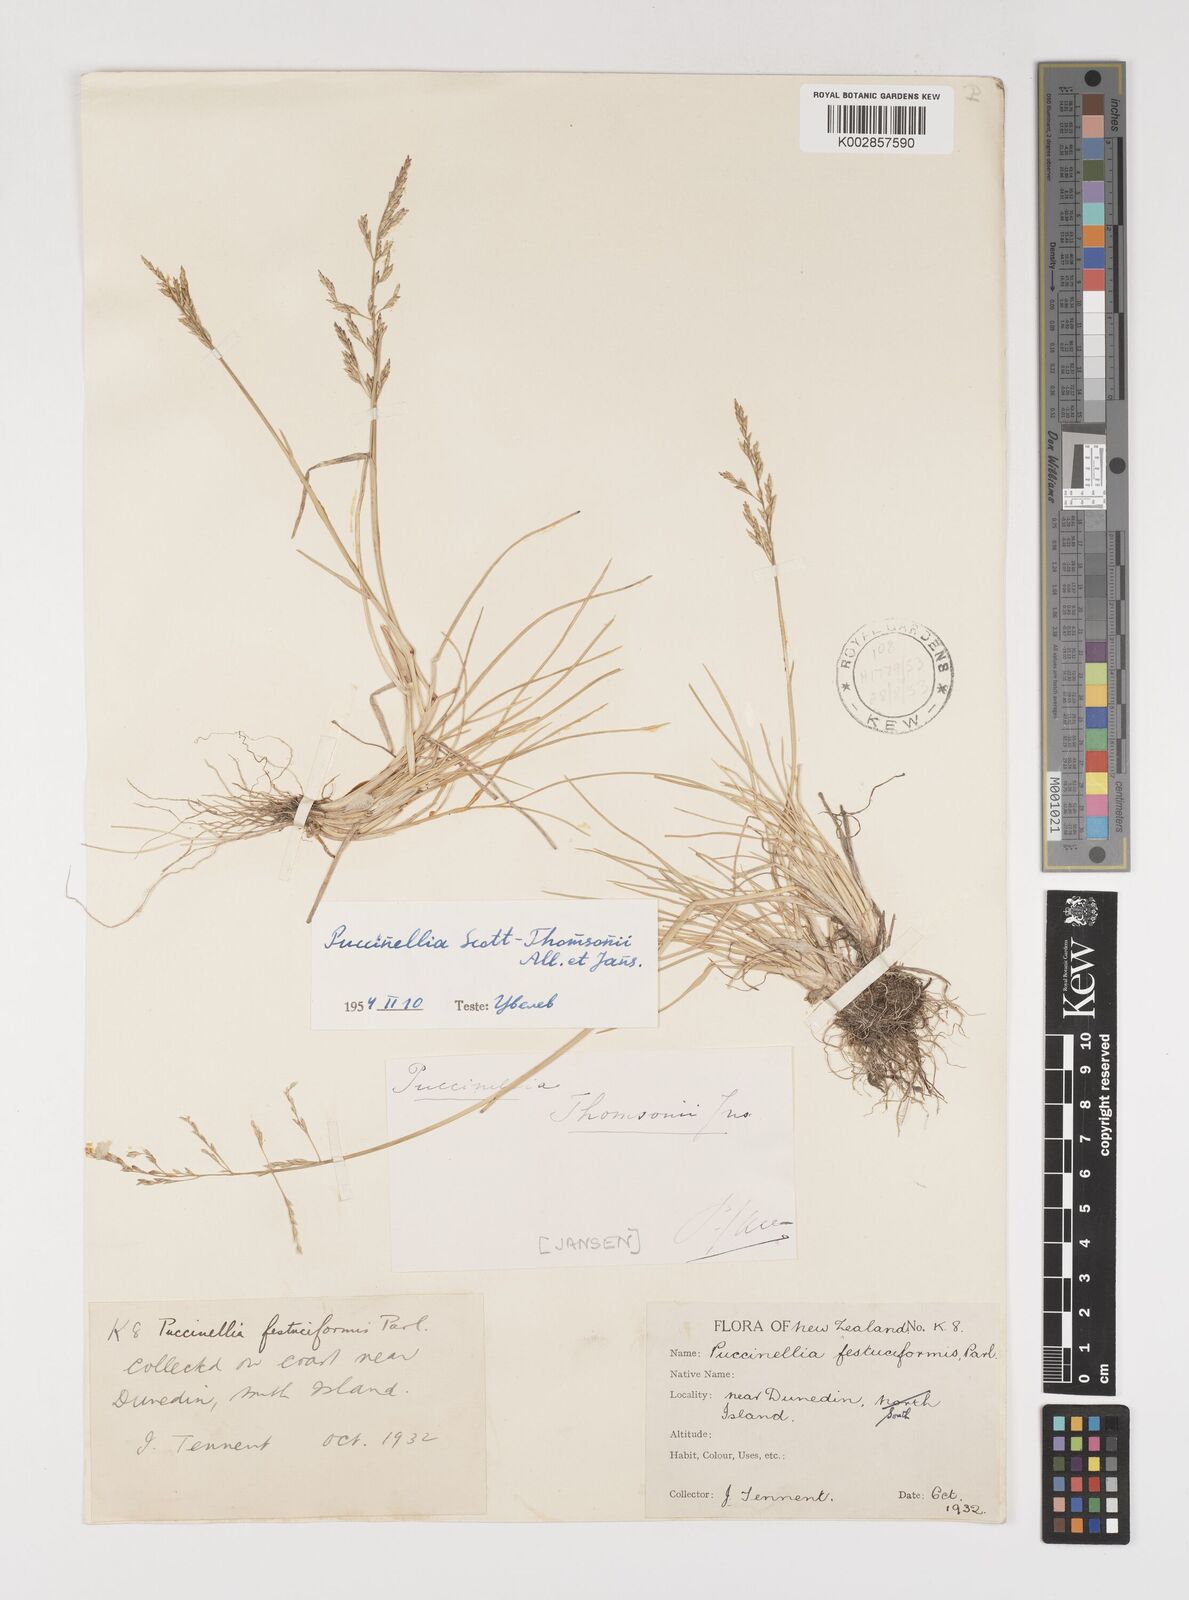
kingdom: Plantae
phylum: Tracheophyta
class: Liliopsida
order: Poales
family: Poaceae
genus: Puccinellia
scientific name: Puccinellia festuciformis
